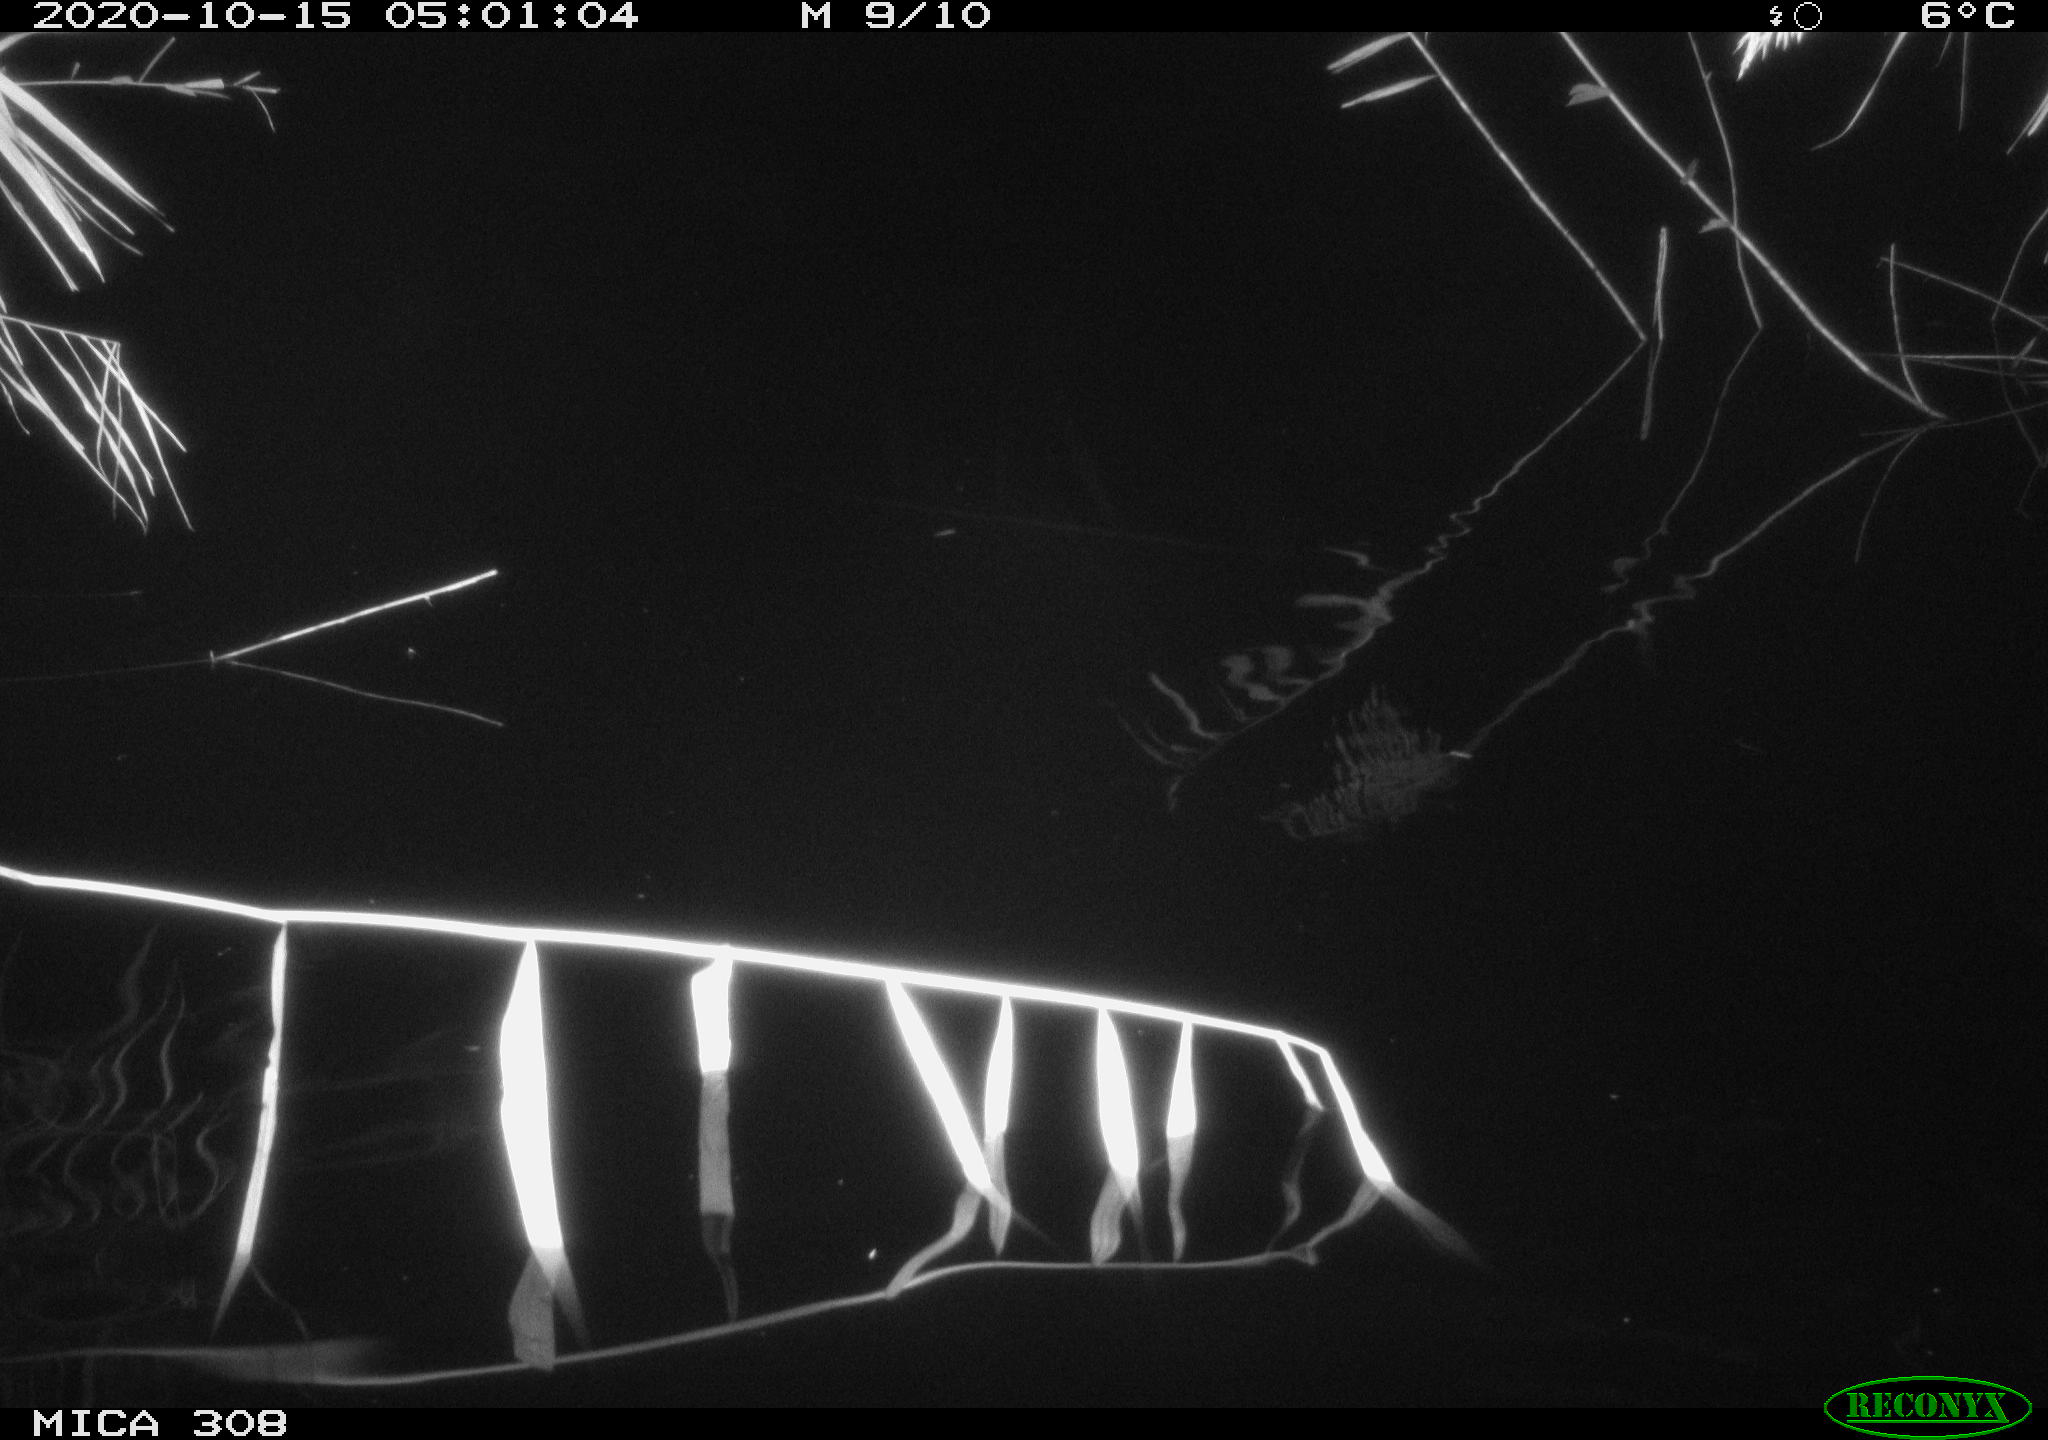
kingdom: Animalia
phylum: Chordata
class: Mammalia
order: Rodentia
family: Muridae
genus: Rattus
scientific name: Rattus norvegicus
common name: Brown rat
